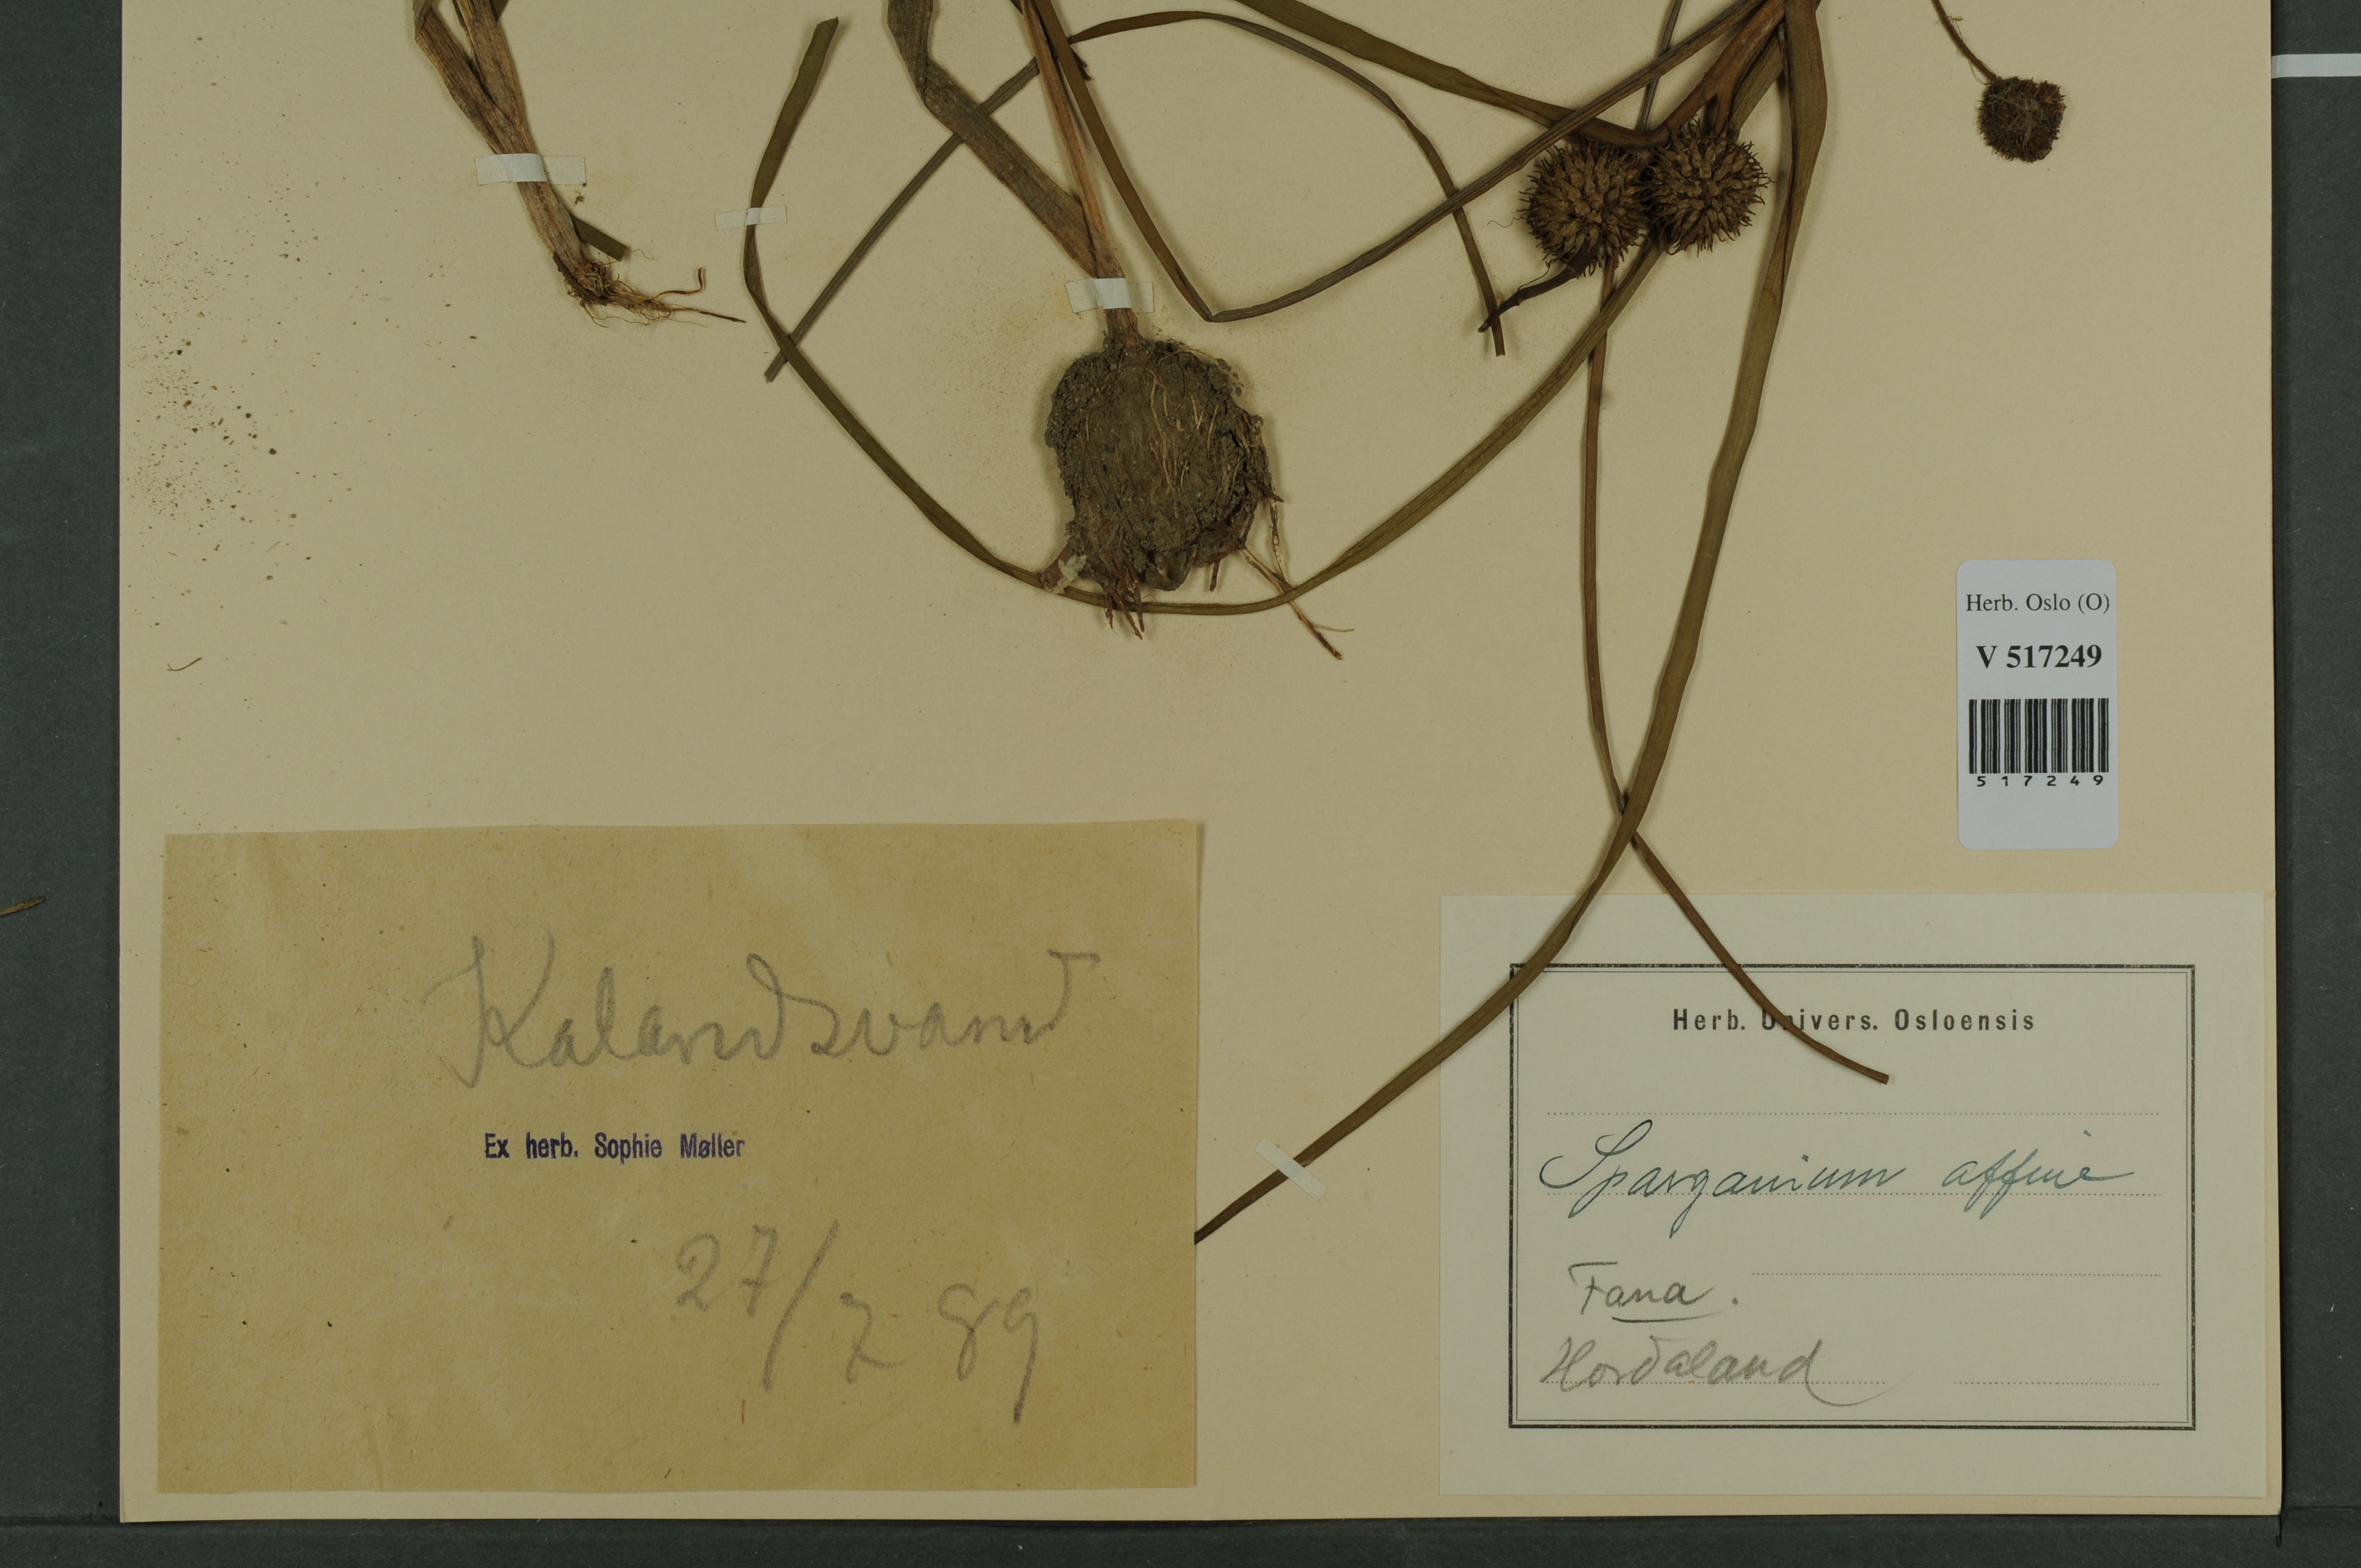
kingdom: Plantae
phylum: Tracheophyta
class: Liliopsida
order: Poales
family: Typhaceae
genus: Sparganium
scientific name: Sparganium angustifolium
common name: Floating bur-reed
